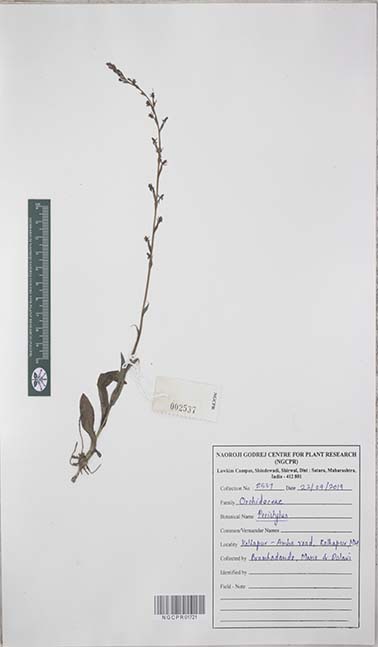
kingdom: Plantae
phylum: Tracheophyta
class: Liliopsida
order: Asparagales
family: Orchidaceae
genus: Peristylus
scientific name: Peristylus
